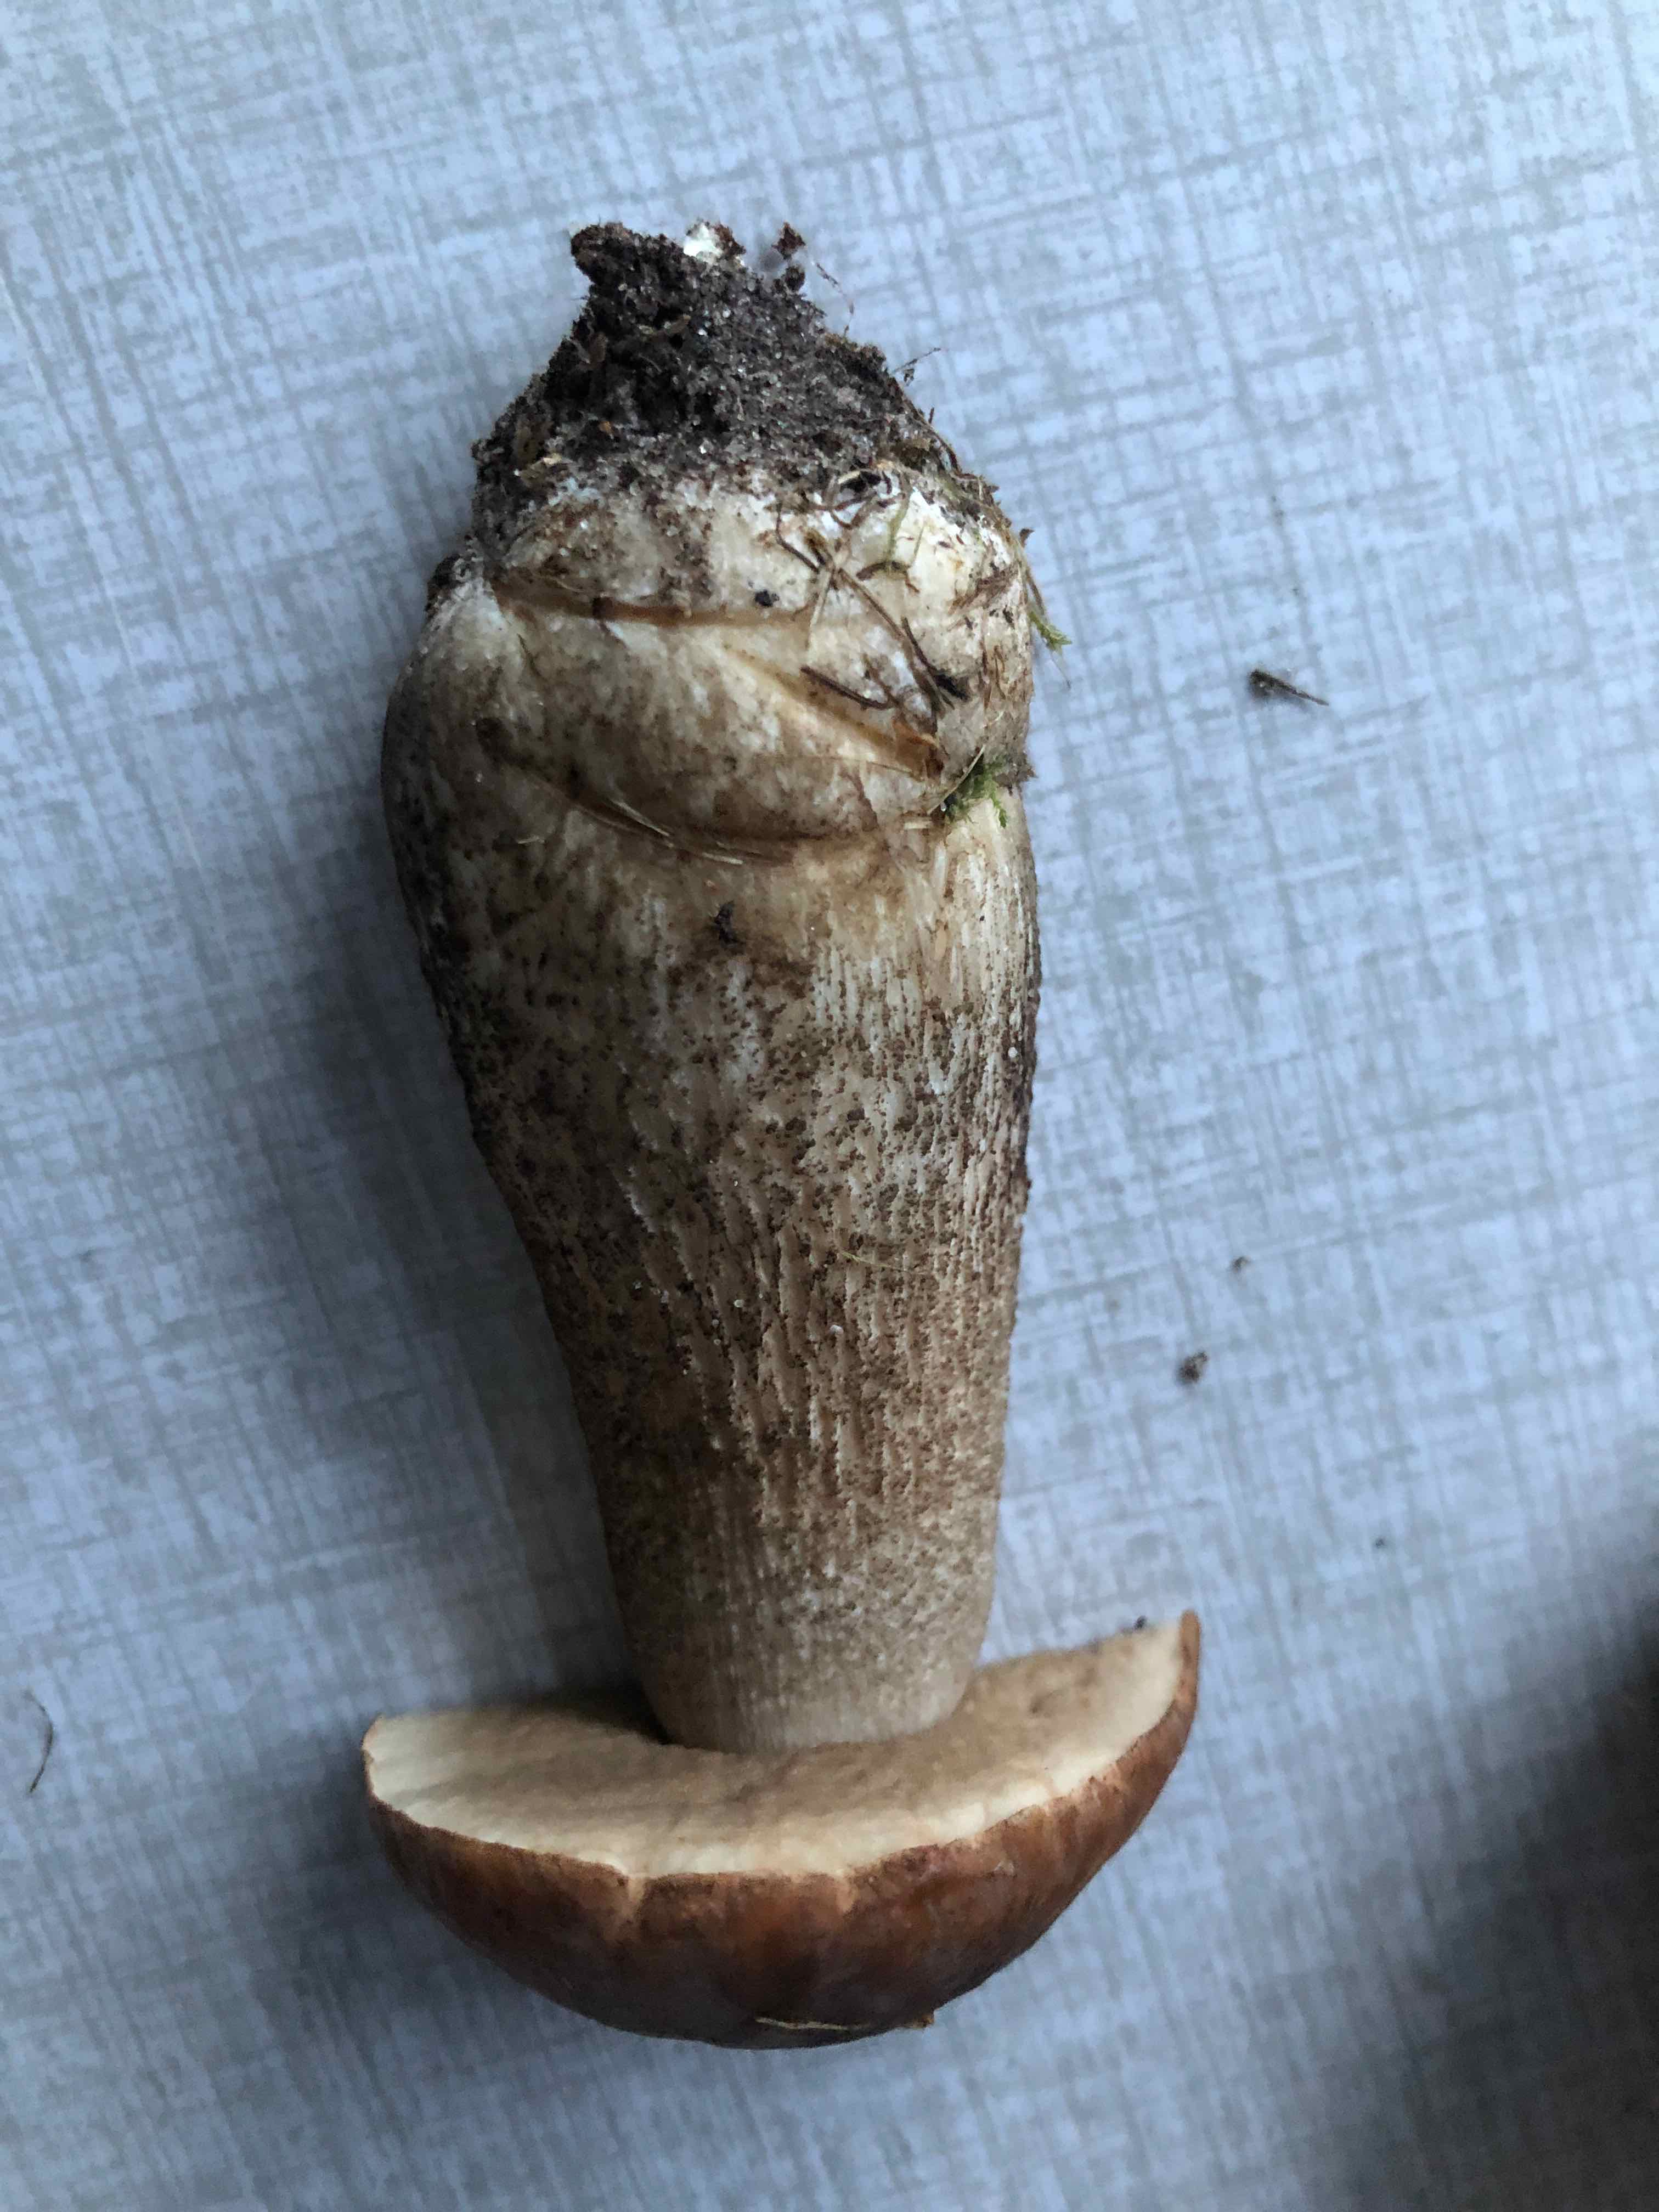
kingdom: Fungi
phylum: Basidiomycota
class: Agaricomycetes
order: Boletales
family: Boletaceae
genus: Leccinum
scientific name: Leccinum scabrum
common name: brun skælrørhat
